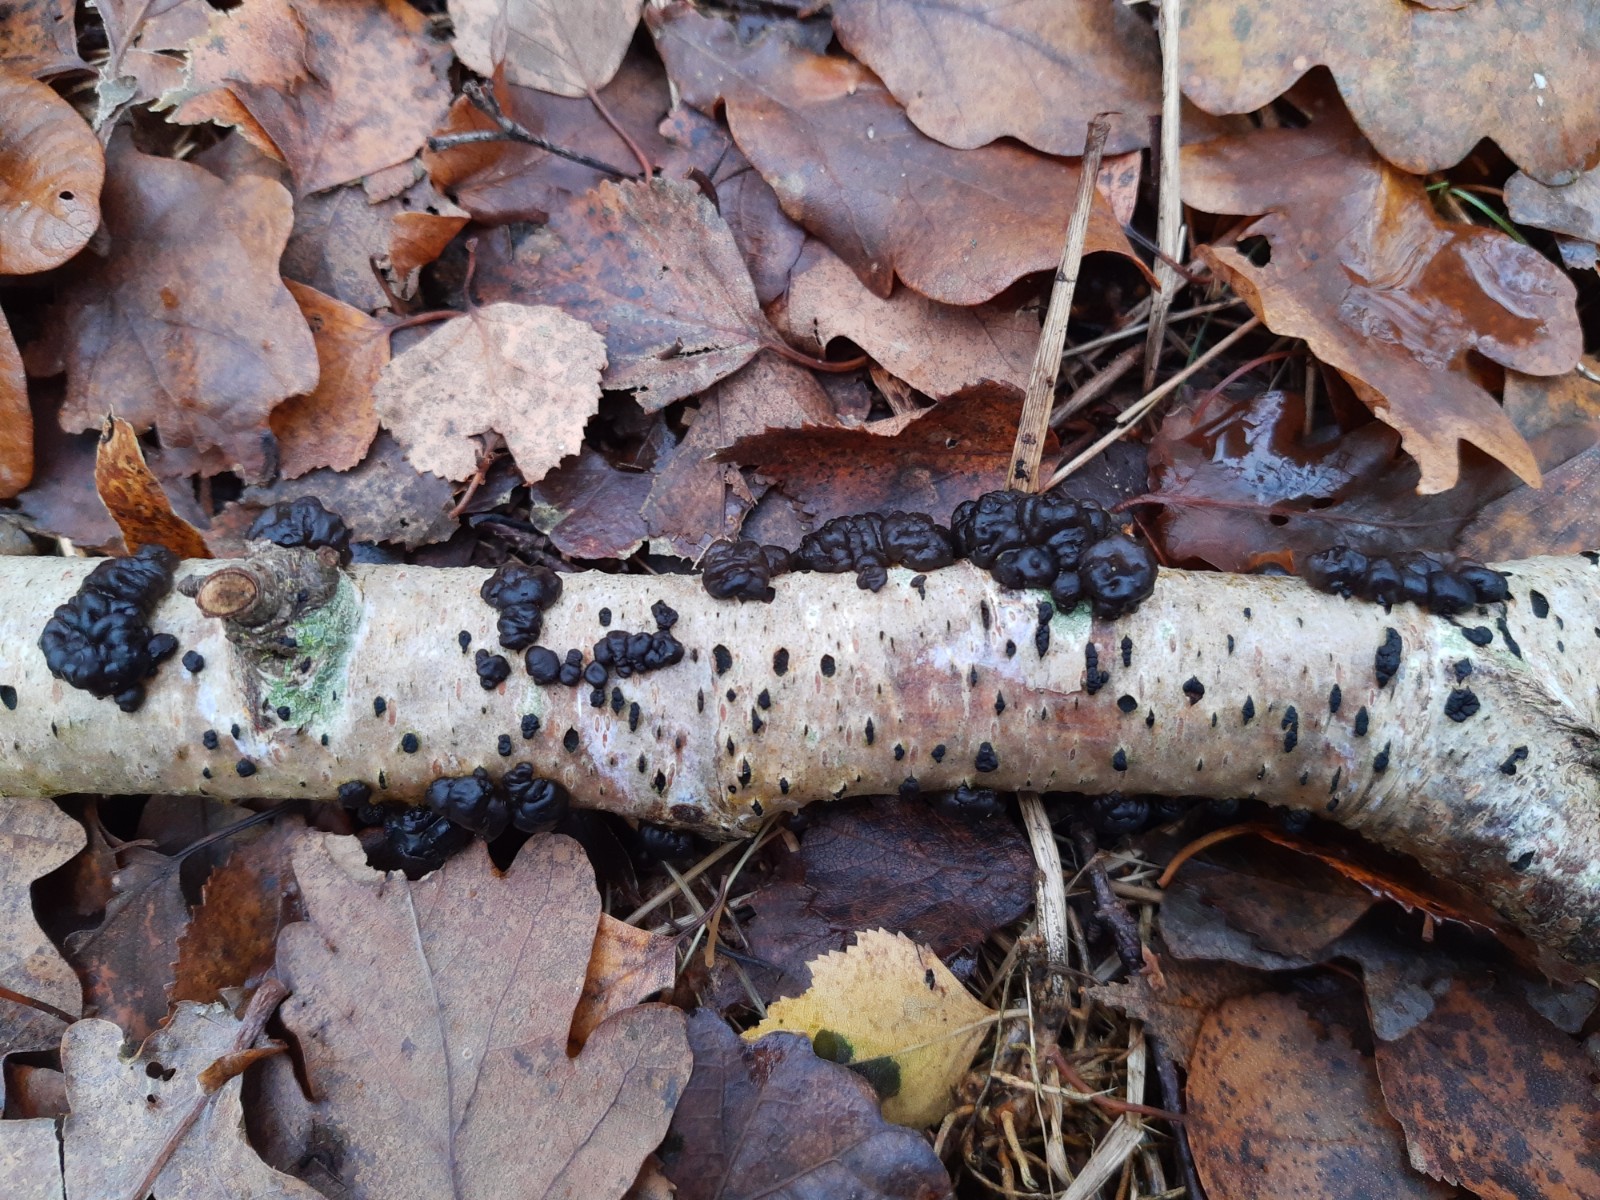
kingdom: Fungi
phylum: Basidiomycota
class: Agaricomycetes
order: Auriculariales
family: Auriculariaceae
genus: Exidia
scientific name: Exidia nigricans
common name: almindelig bævretop
